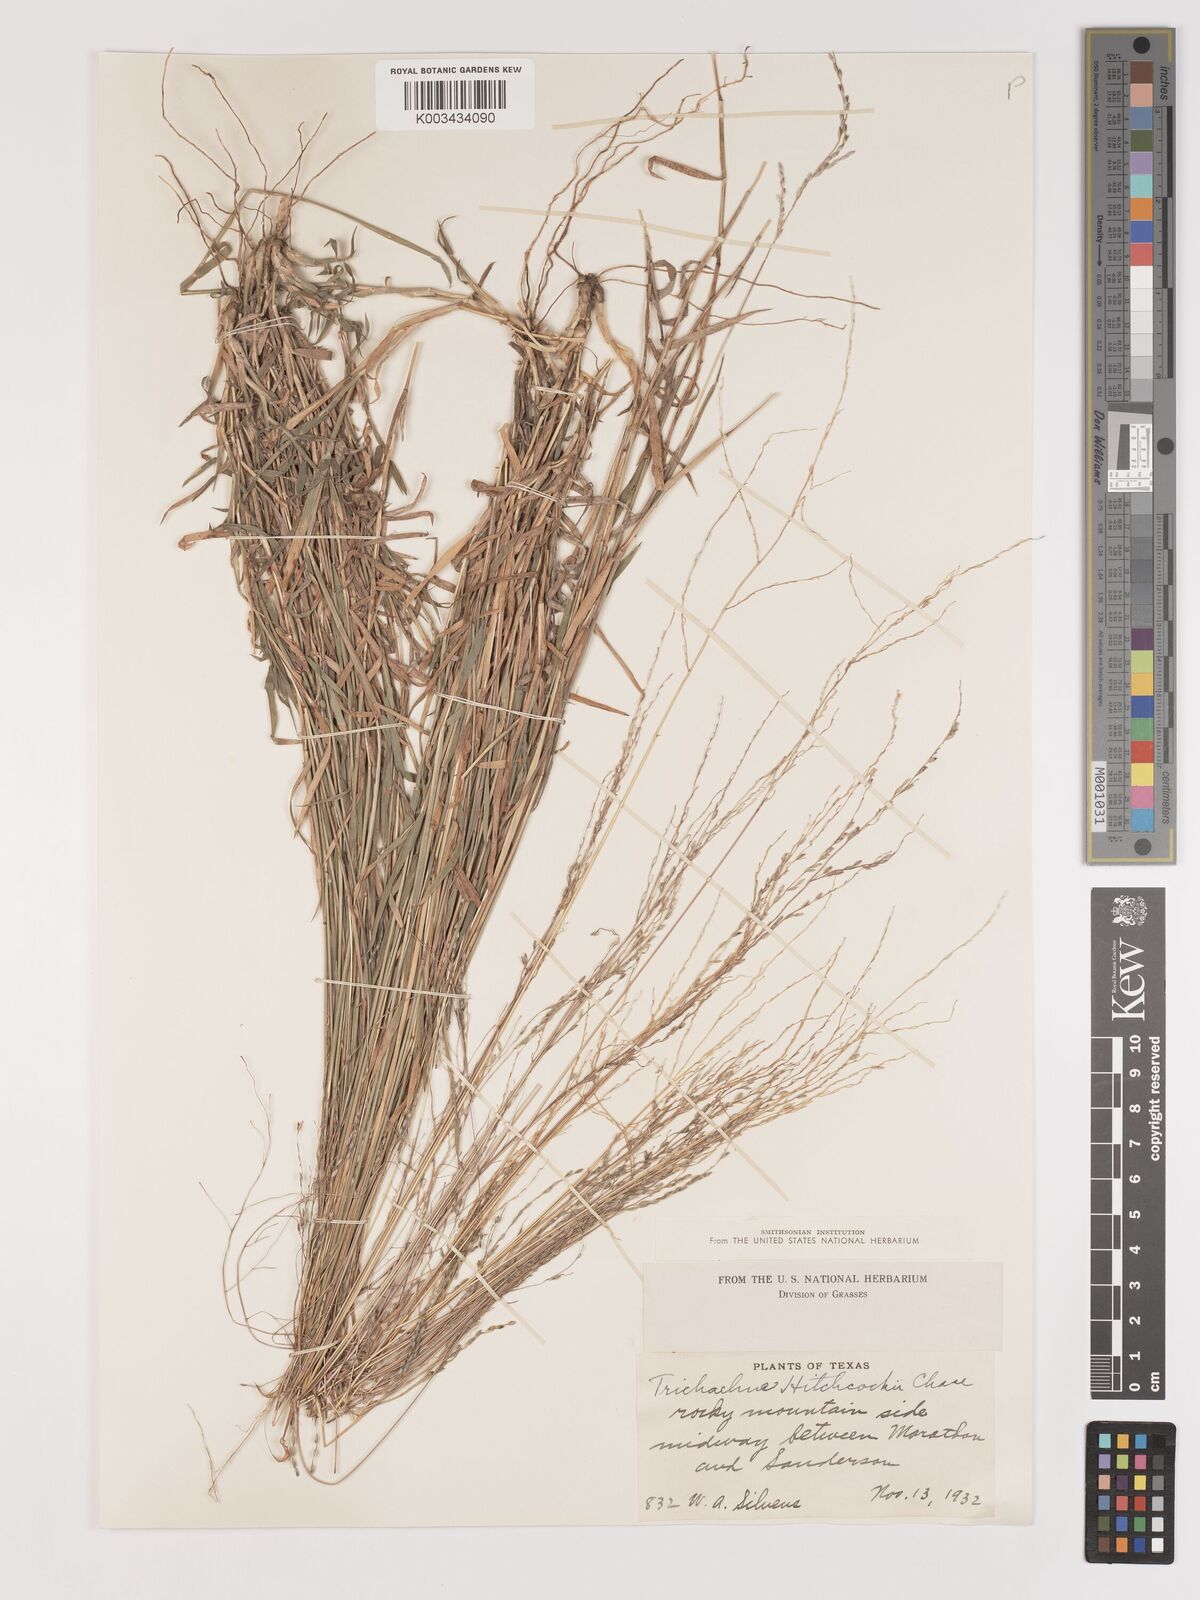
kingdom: Plantae
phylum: Tracheophyta
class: Liliopsida
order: Poales
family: Poaceae
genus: Digitaria
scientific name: Digitaria hitchcockii
